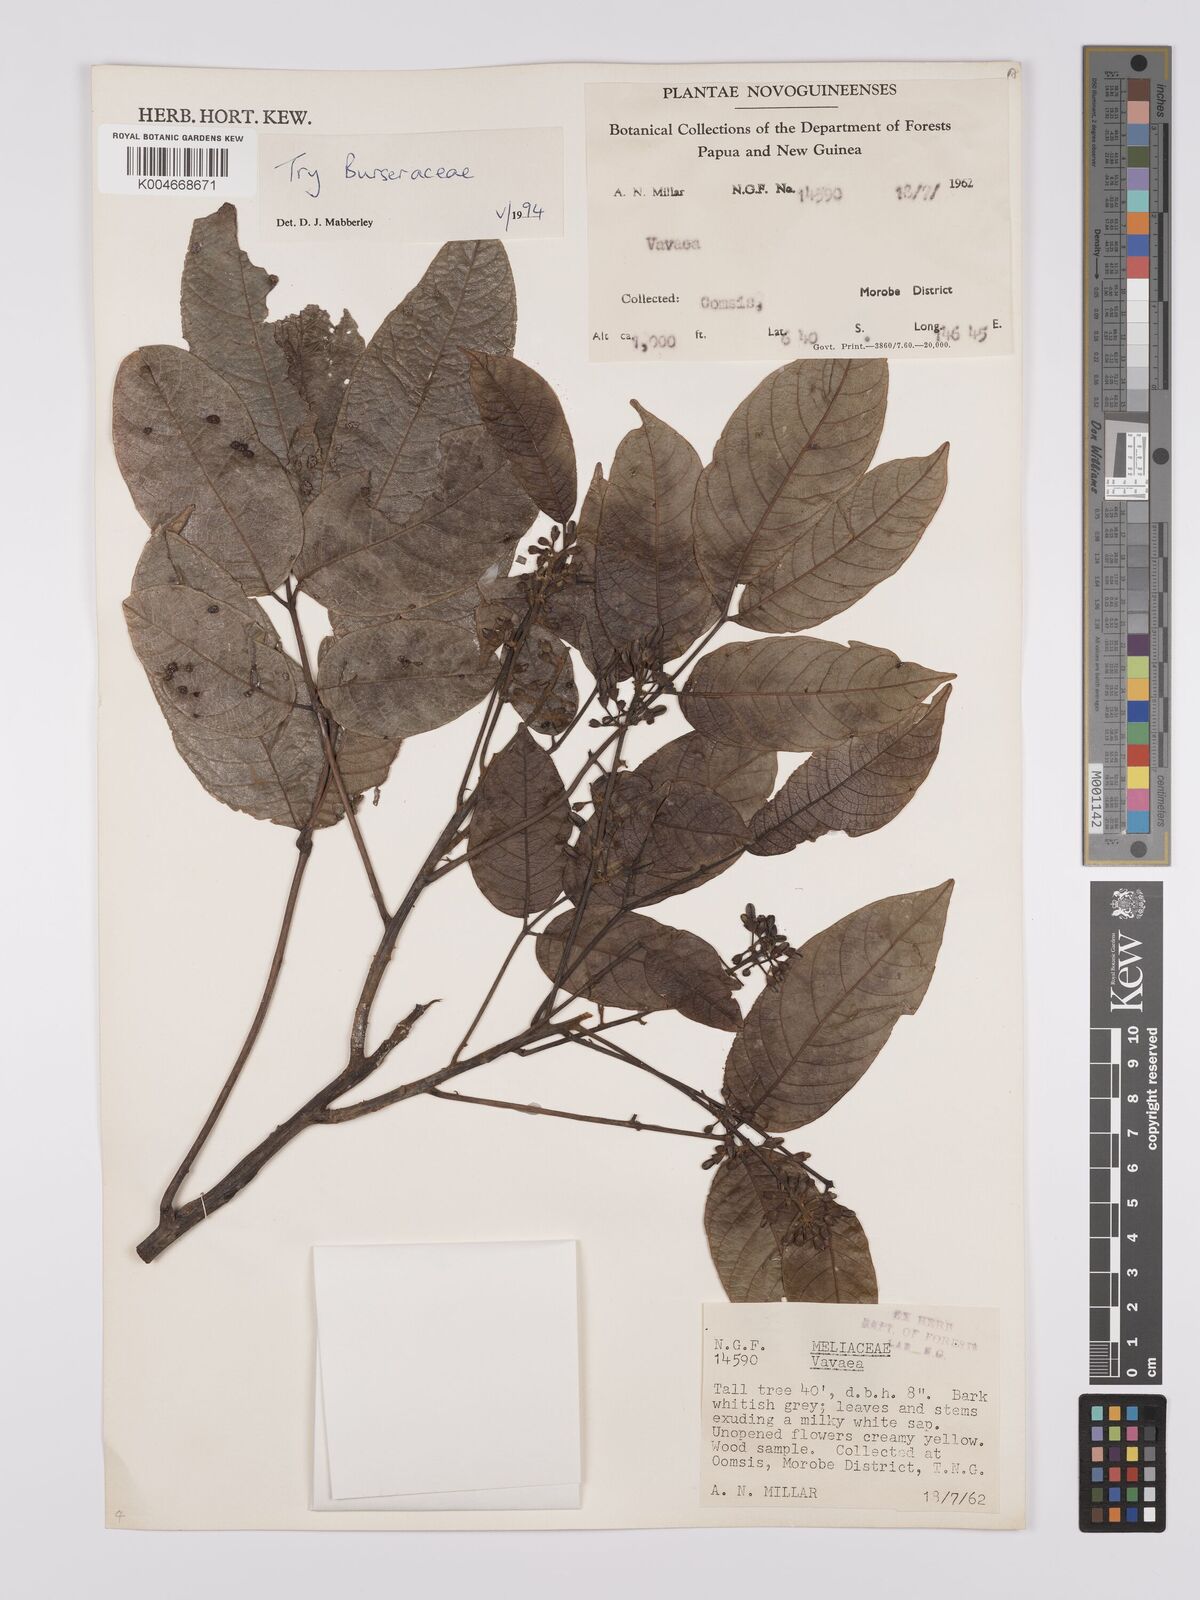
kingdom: Plantae
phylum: Tracheophyta
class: Magnoliopsida
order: Sapindales
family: Burseraceae
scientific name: Burseraceae
